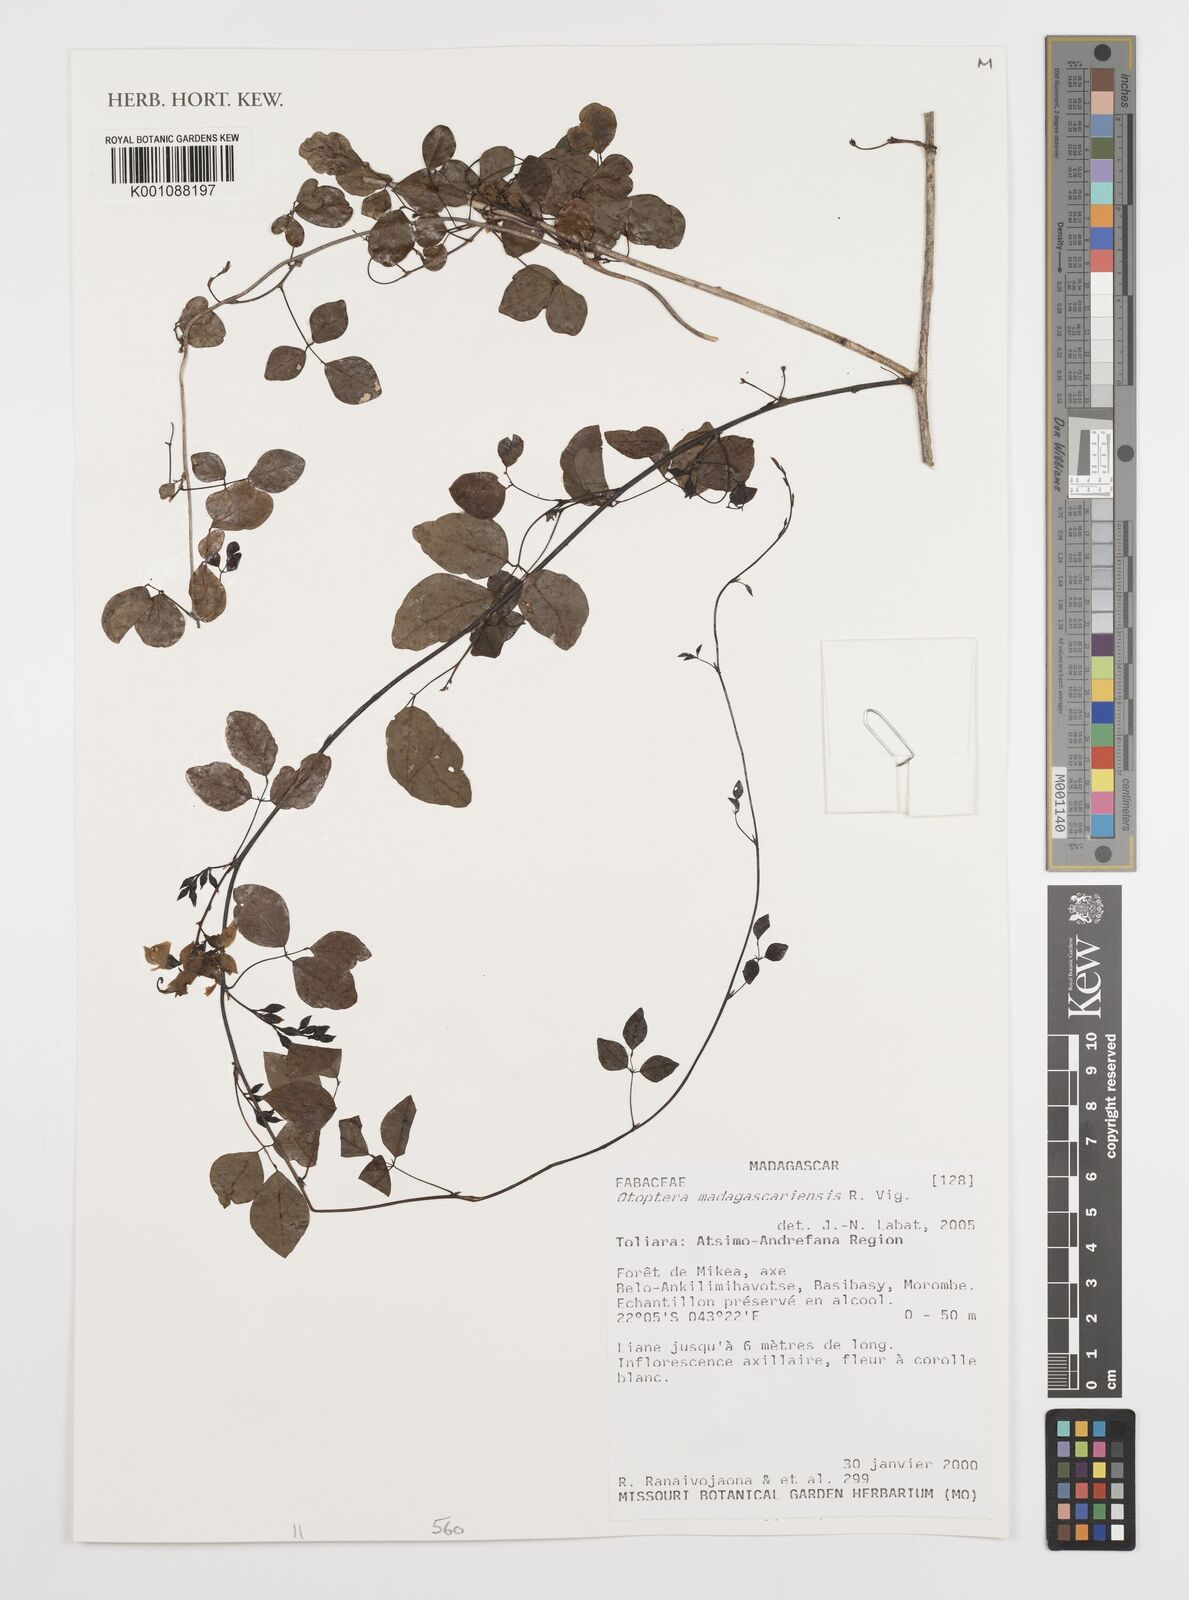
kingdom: Plantae
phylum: Tracheophyta
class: Magnoliopsida
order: Fabales
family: Fabaceae
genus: Otoptera
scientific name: Otoptera
